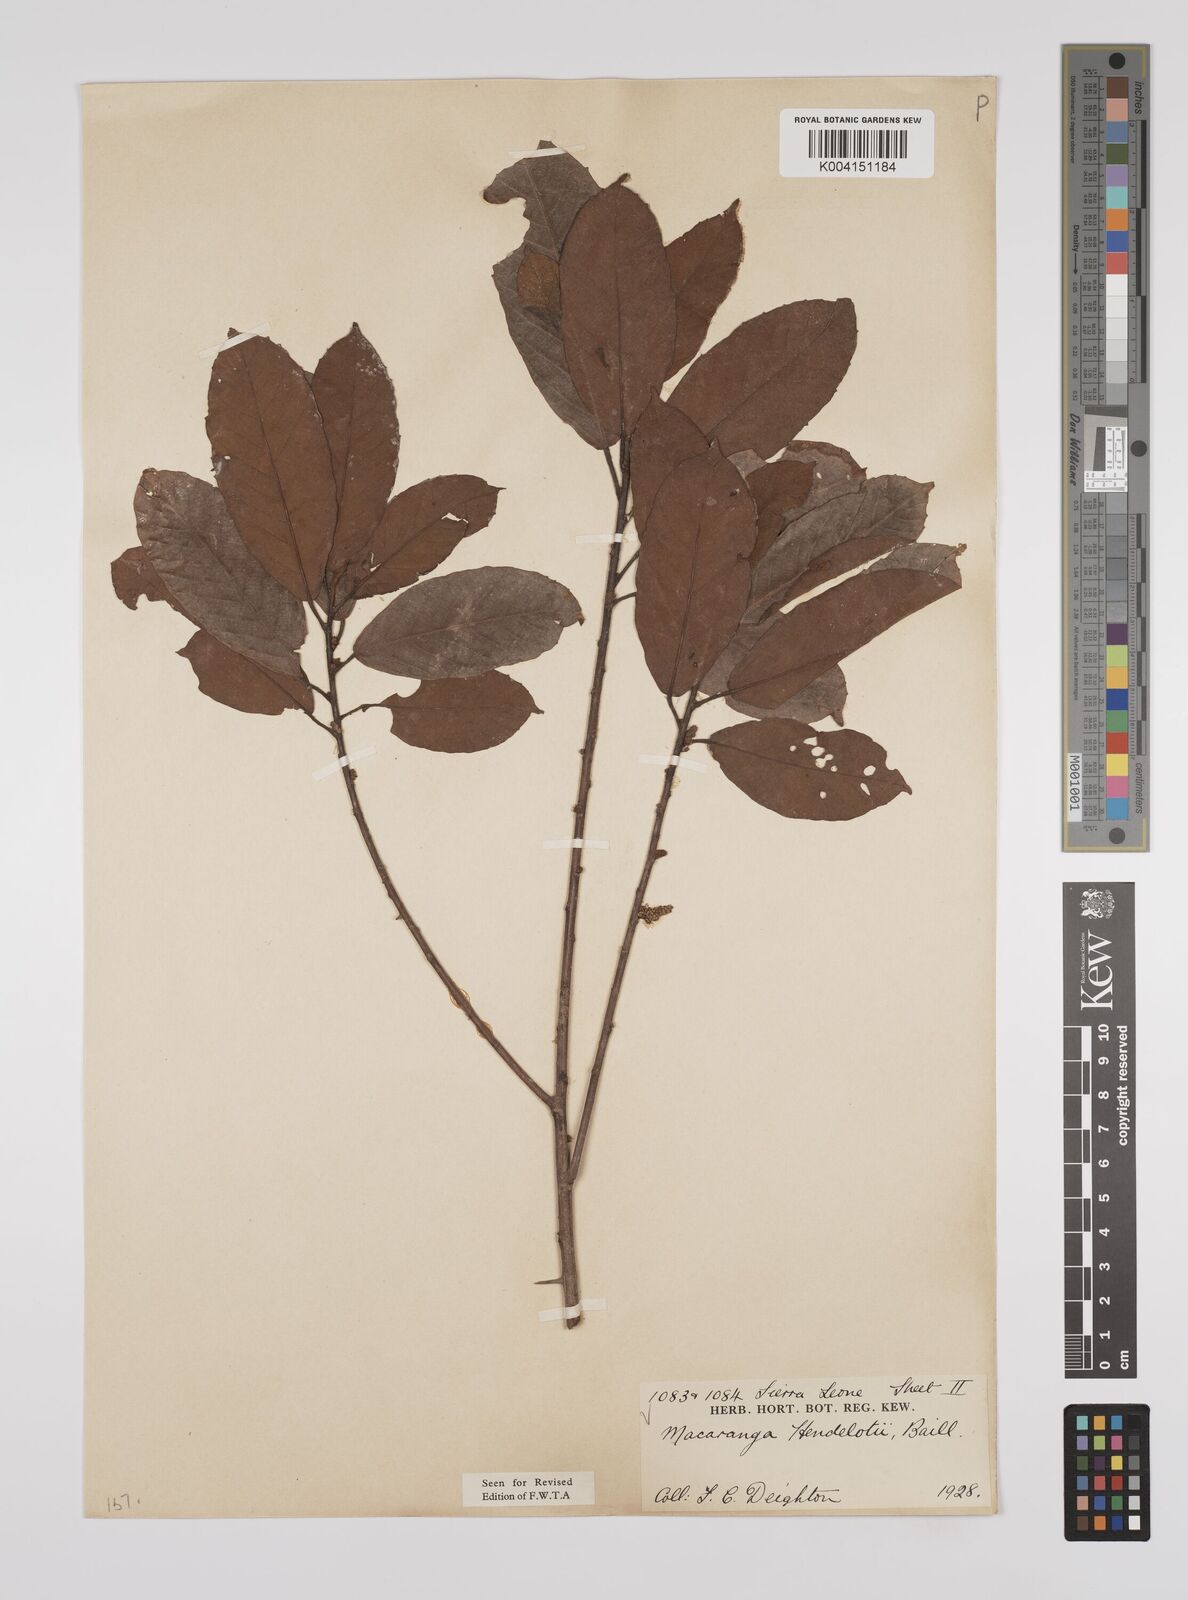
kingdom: Plantae
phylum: Tracheophyta
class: Magnoliopsida
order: Malpighiales
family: Euphorbiaceae
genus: Macaranga
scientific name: Macaranga heudelotii
